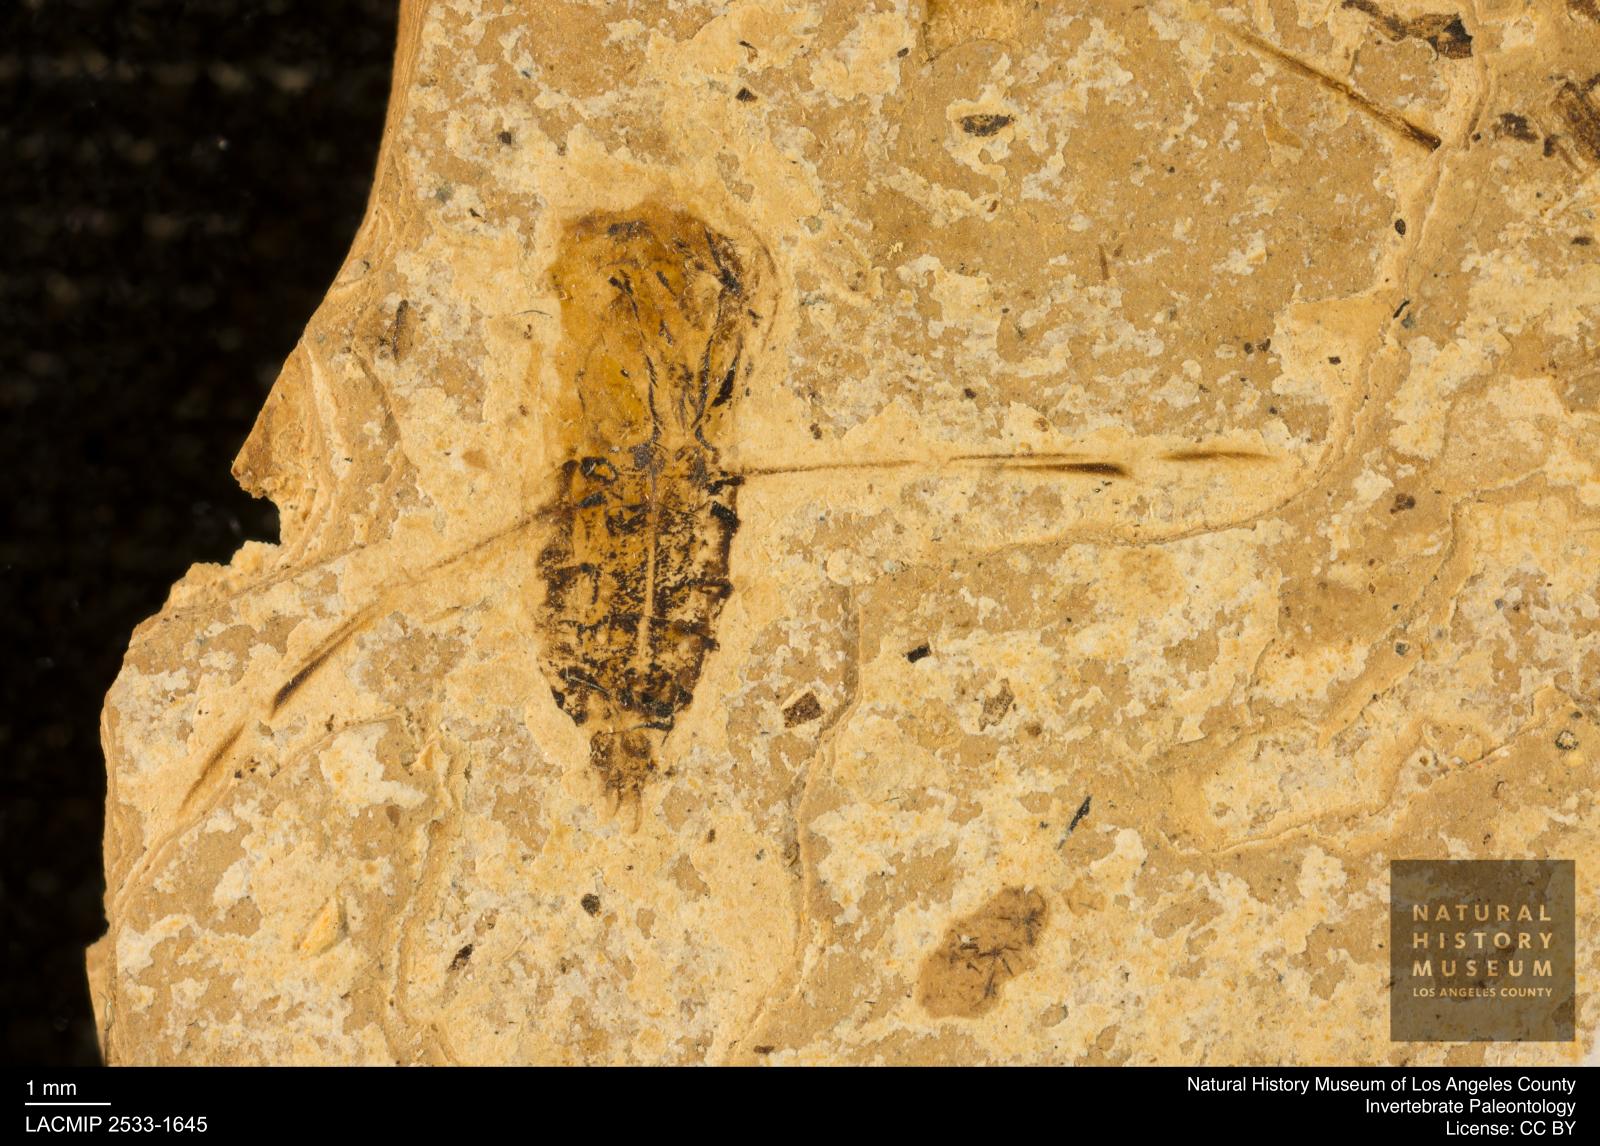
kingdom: Animalia
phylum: Arthropoda
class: Insecta
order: Hemiptera
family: Notonectidae
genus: Notonecta
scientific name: Notonecta
